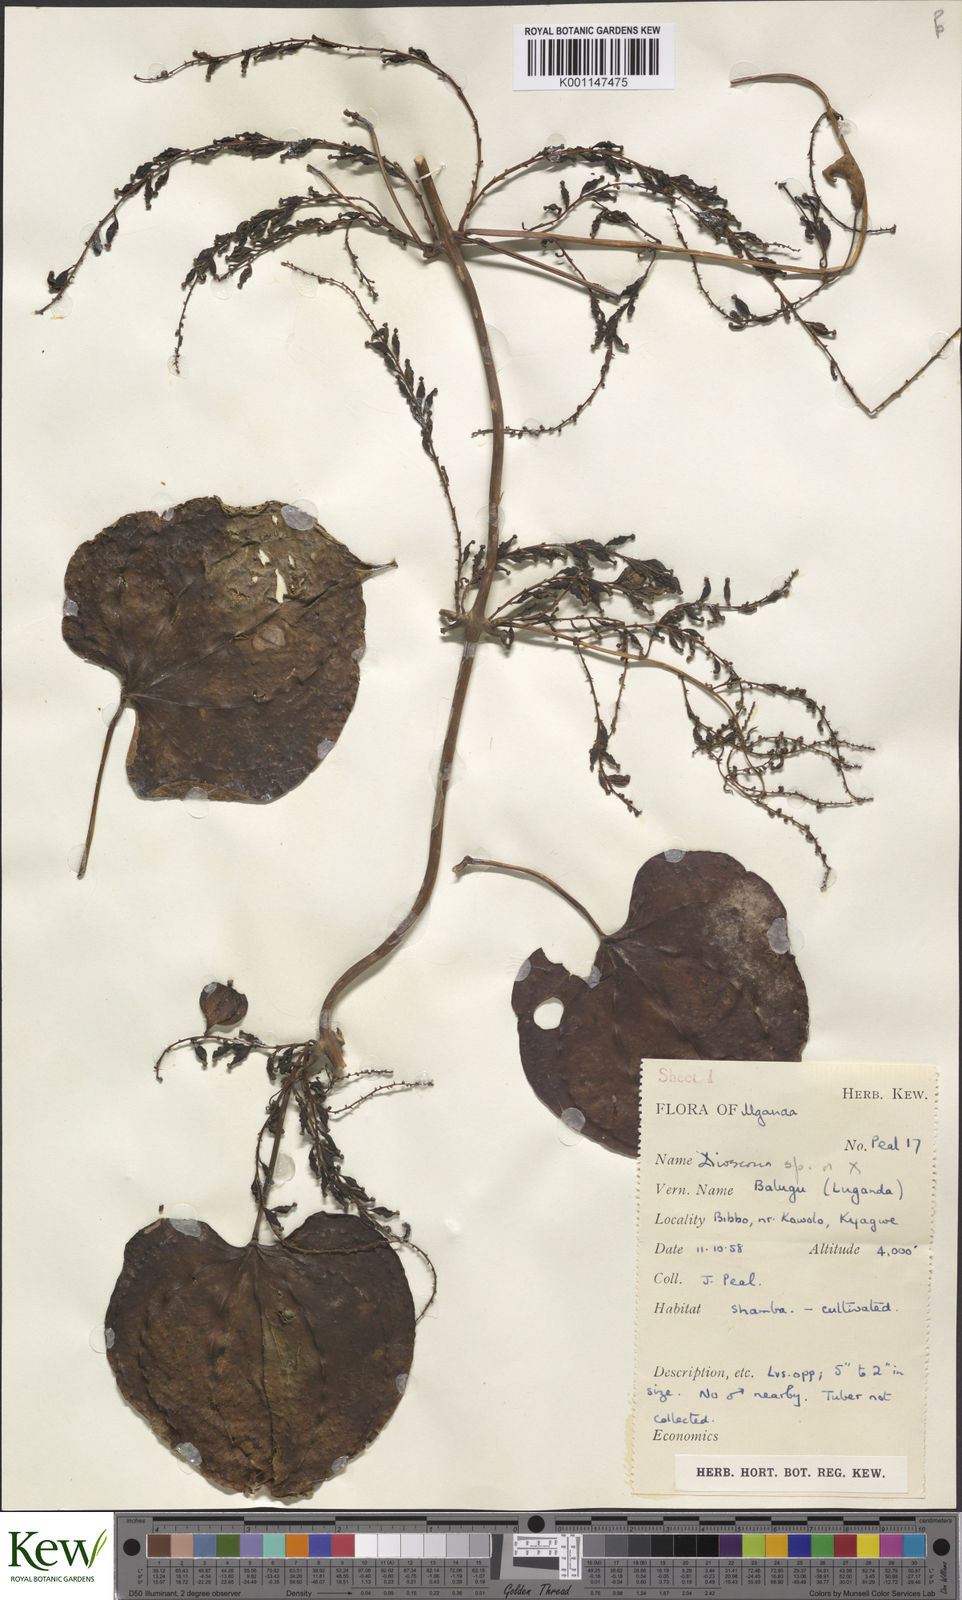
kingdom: Plantae
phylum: Tracheophyta
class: Liliopsida
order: Dioscoreales
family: Dioscoreaceae
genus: Dioscorea
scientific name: Dioscorea
